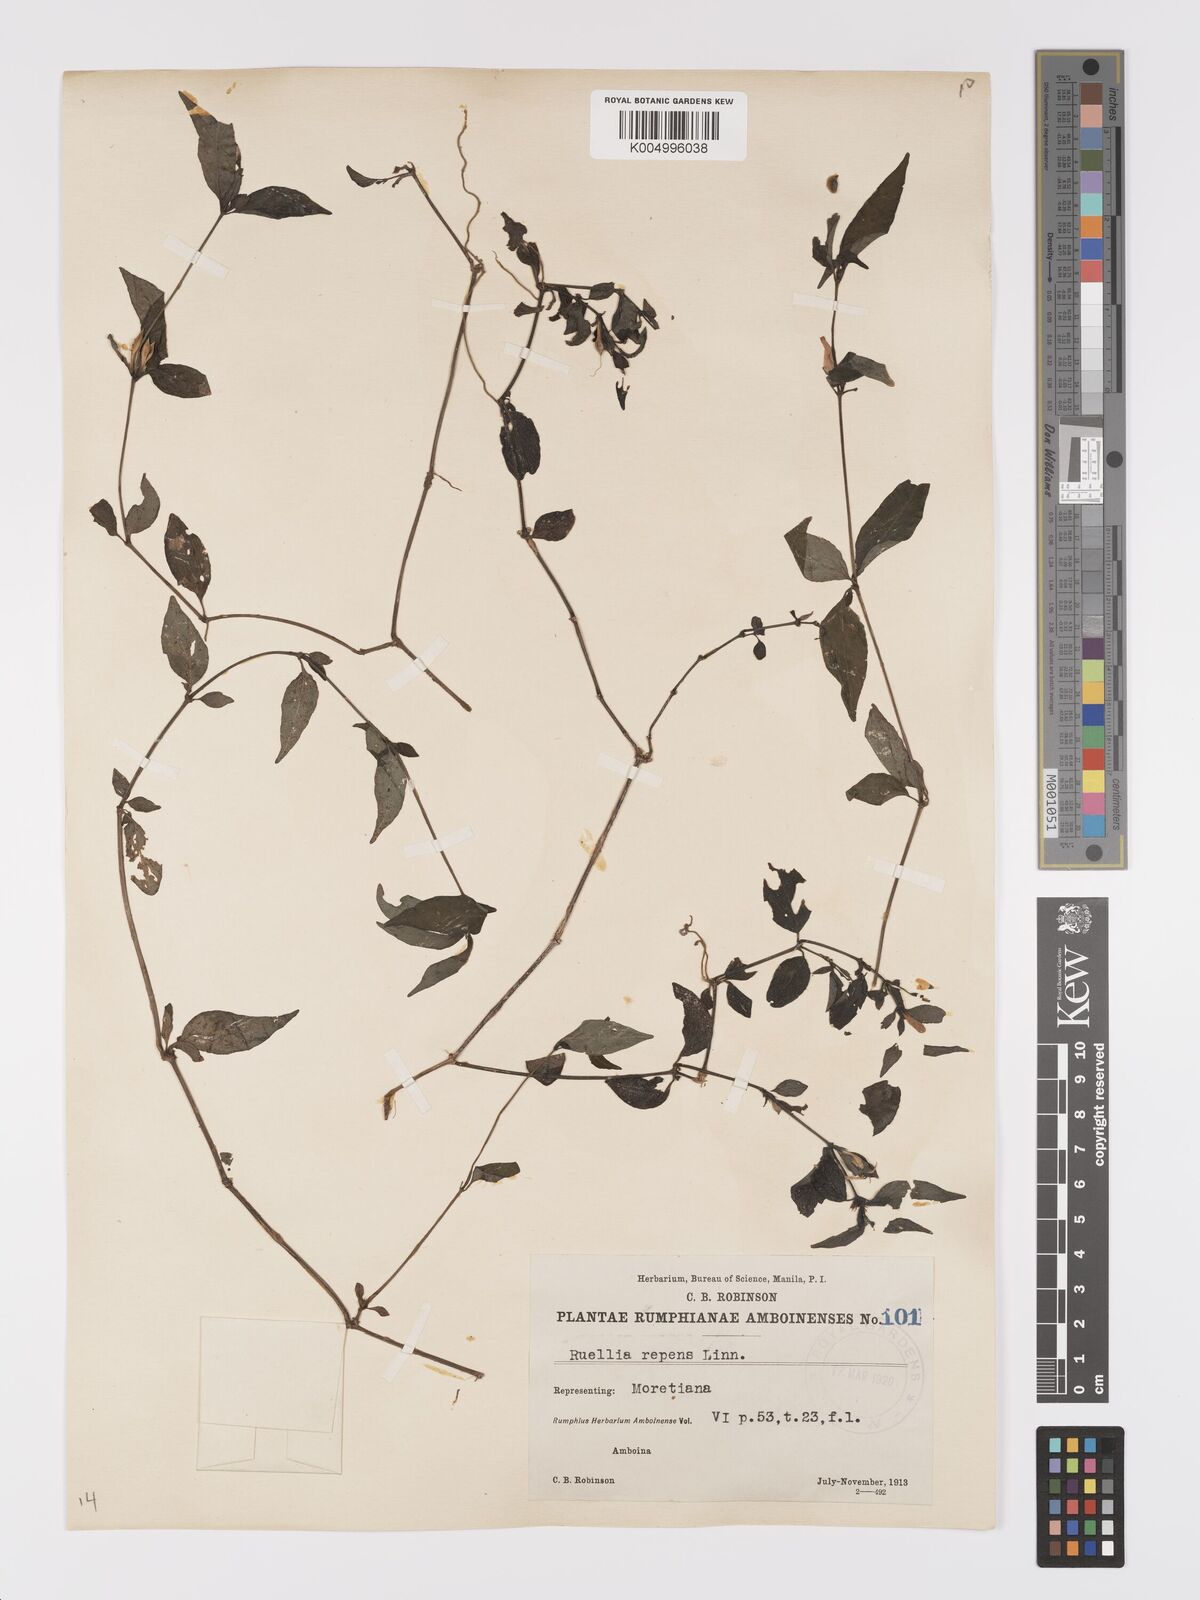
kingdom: Plantae
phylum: Tracheophyta
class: Magnoliopsida
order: Lamiales
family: Acanthaceae
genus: Ruellia
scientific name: Ruellia
